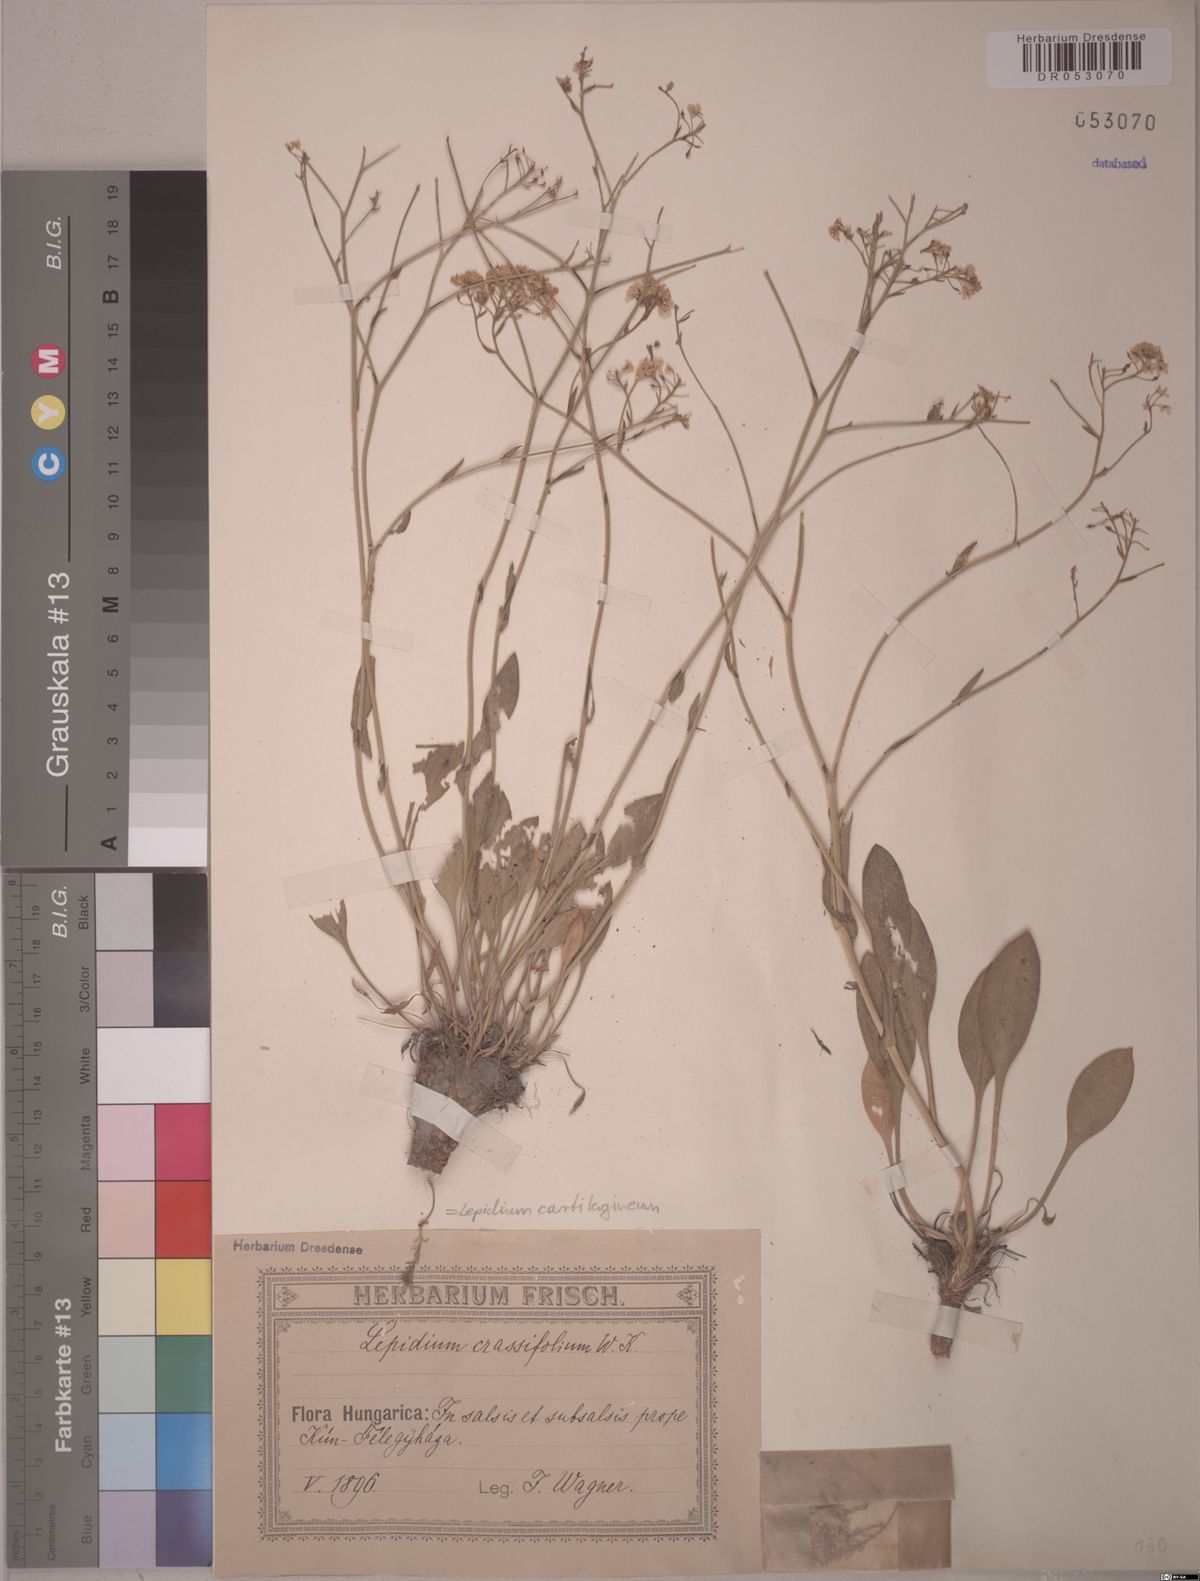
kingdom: Plantae
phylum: Tracheophyta
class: Magnoliopsida
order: Brassicales
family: Brassicaceae
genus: Lepidium
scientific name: Lepidium cartilagineum
